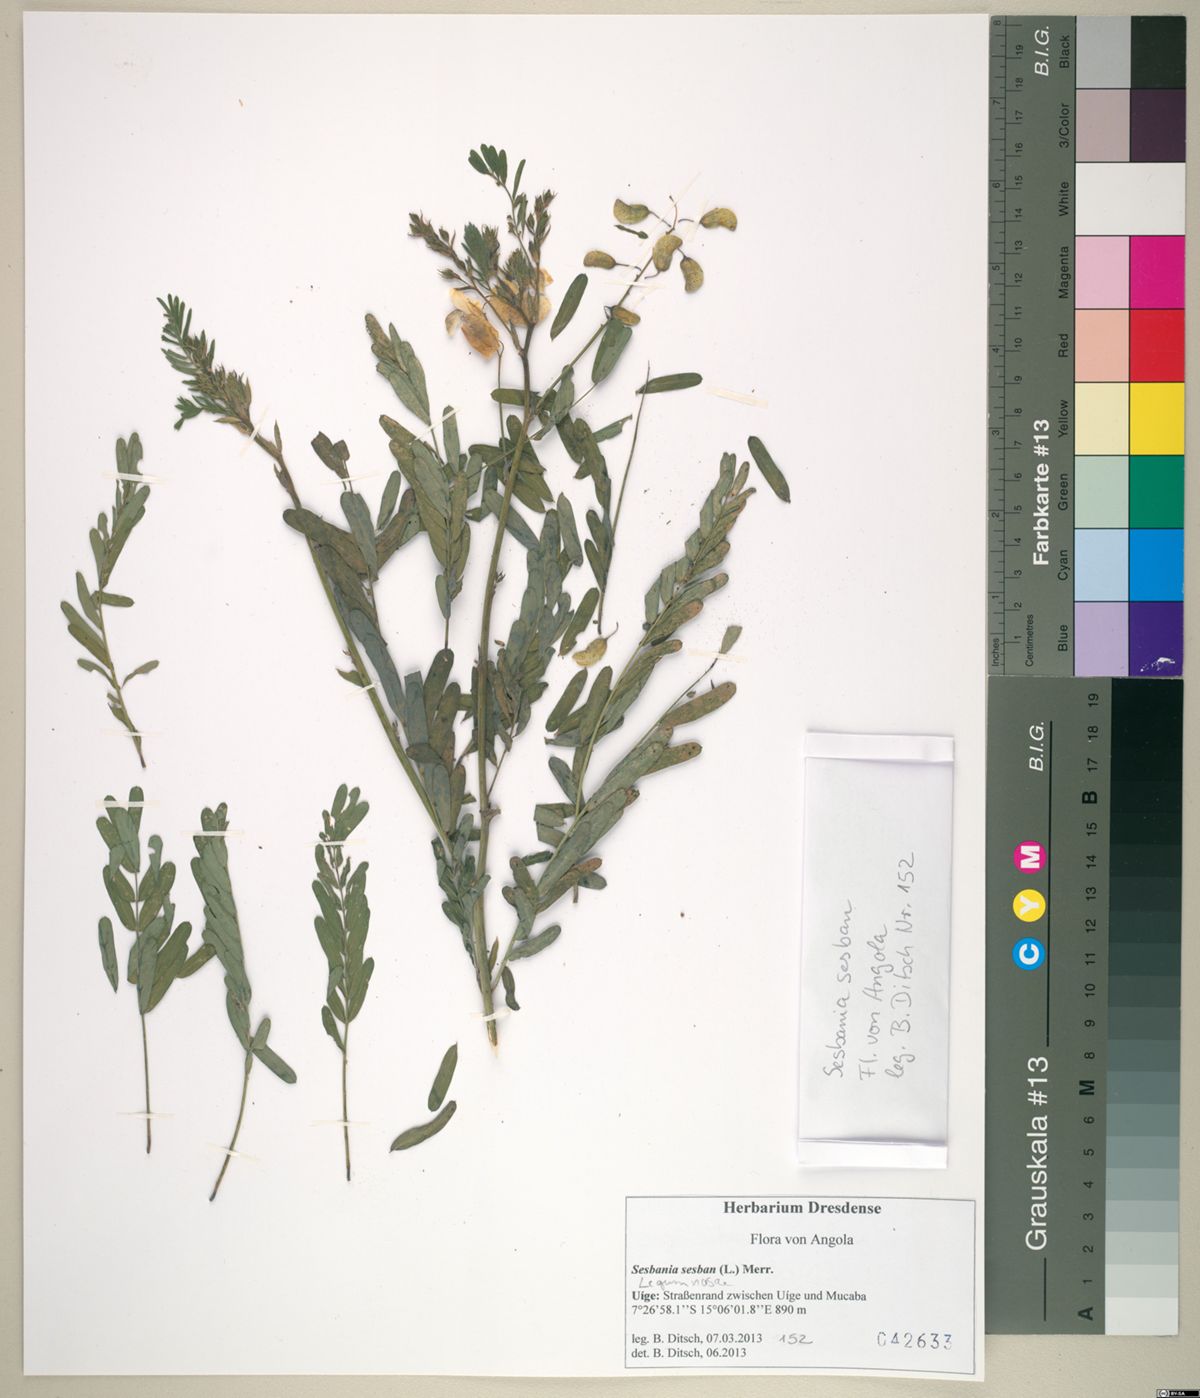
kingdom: Plantae
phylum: Tracheophyta
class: Magnoliopsida
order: Fabales
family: Fabaceae
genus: Sesbania
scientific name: Sesbania sesban
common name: Egyptian sesban
